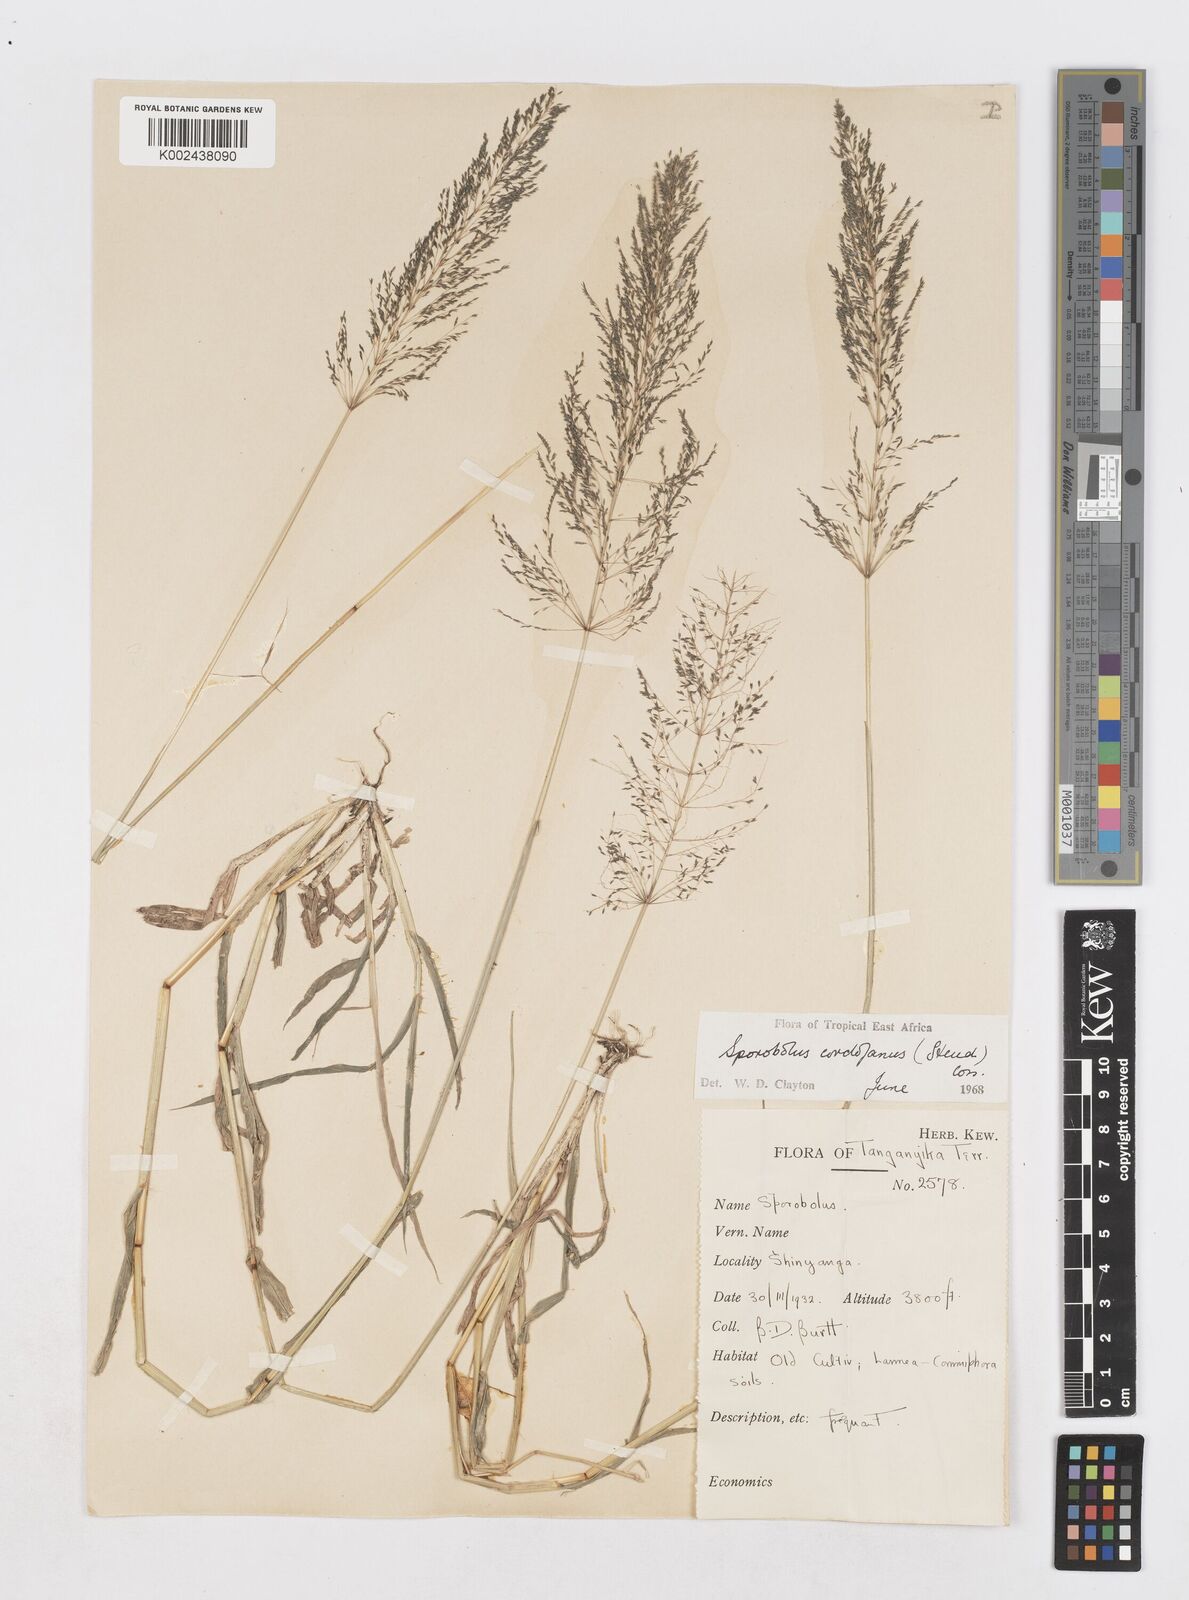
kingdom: Plantae
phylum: Tracheophyta
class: Liliopsida
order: Poales
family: Poaceae
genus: Sporobolus
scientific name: Sporobolus cordofanus
